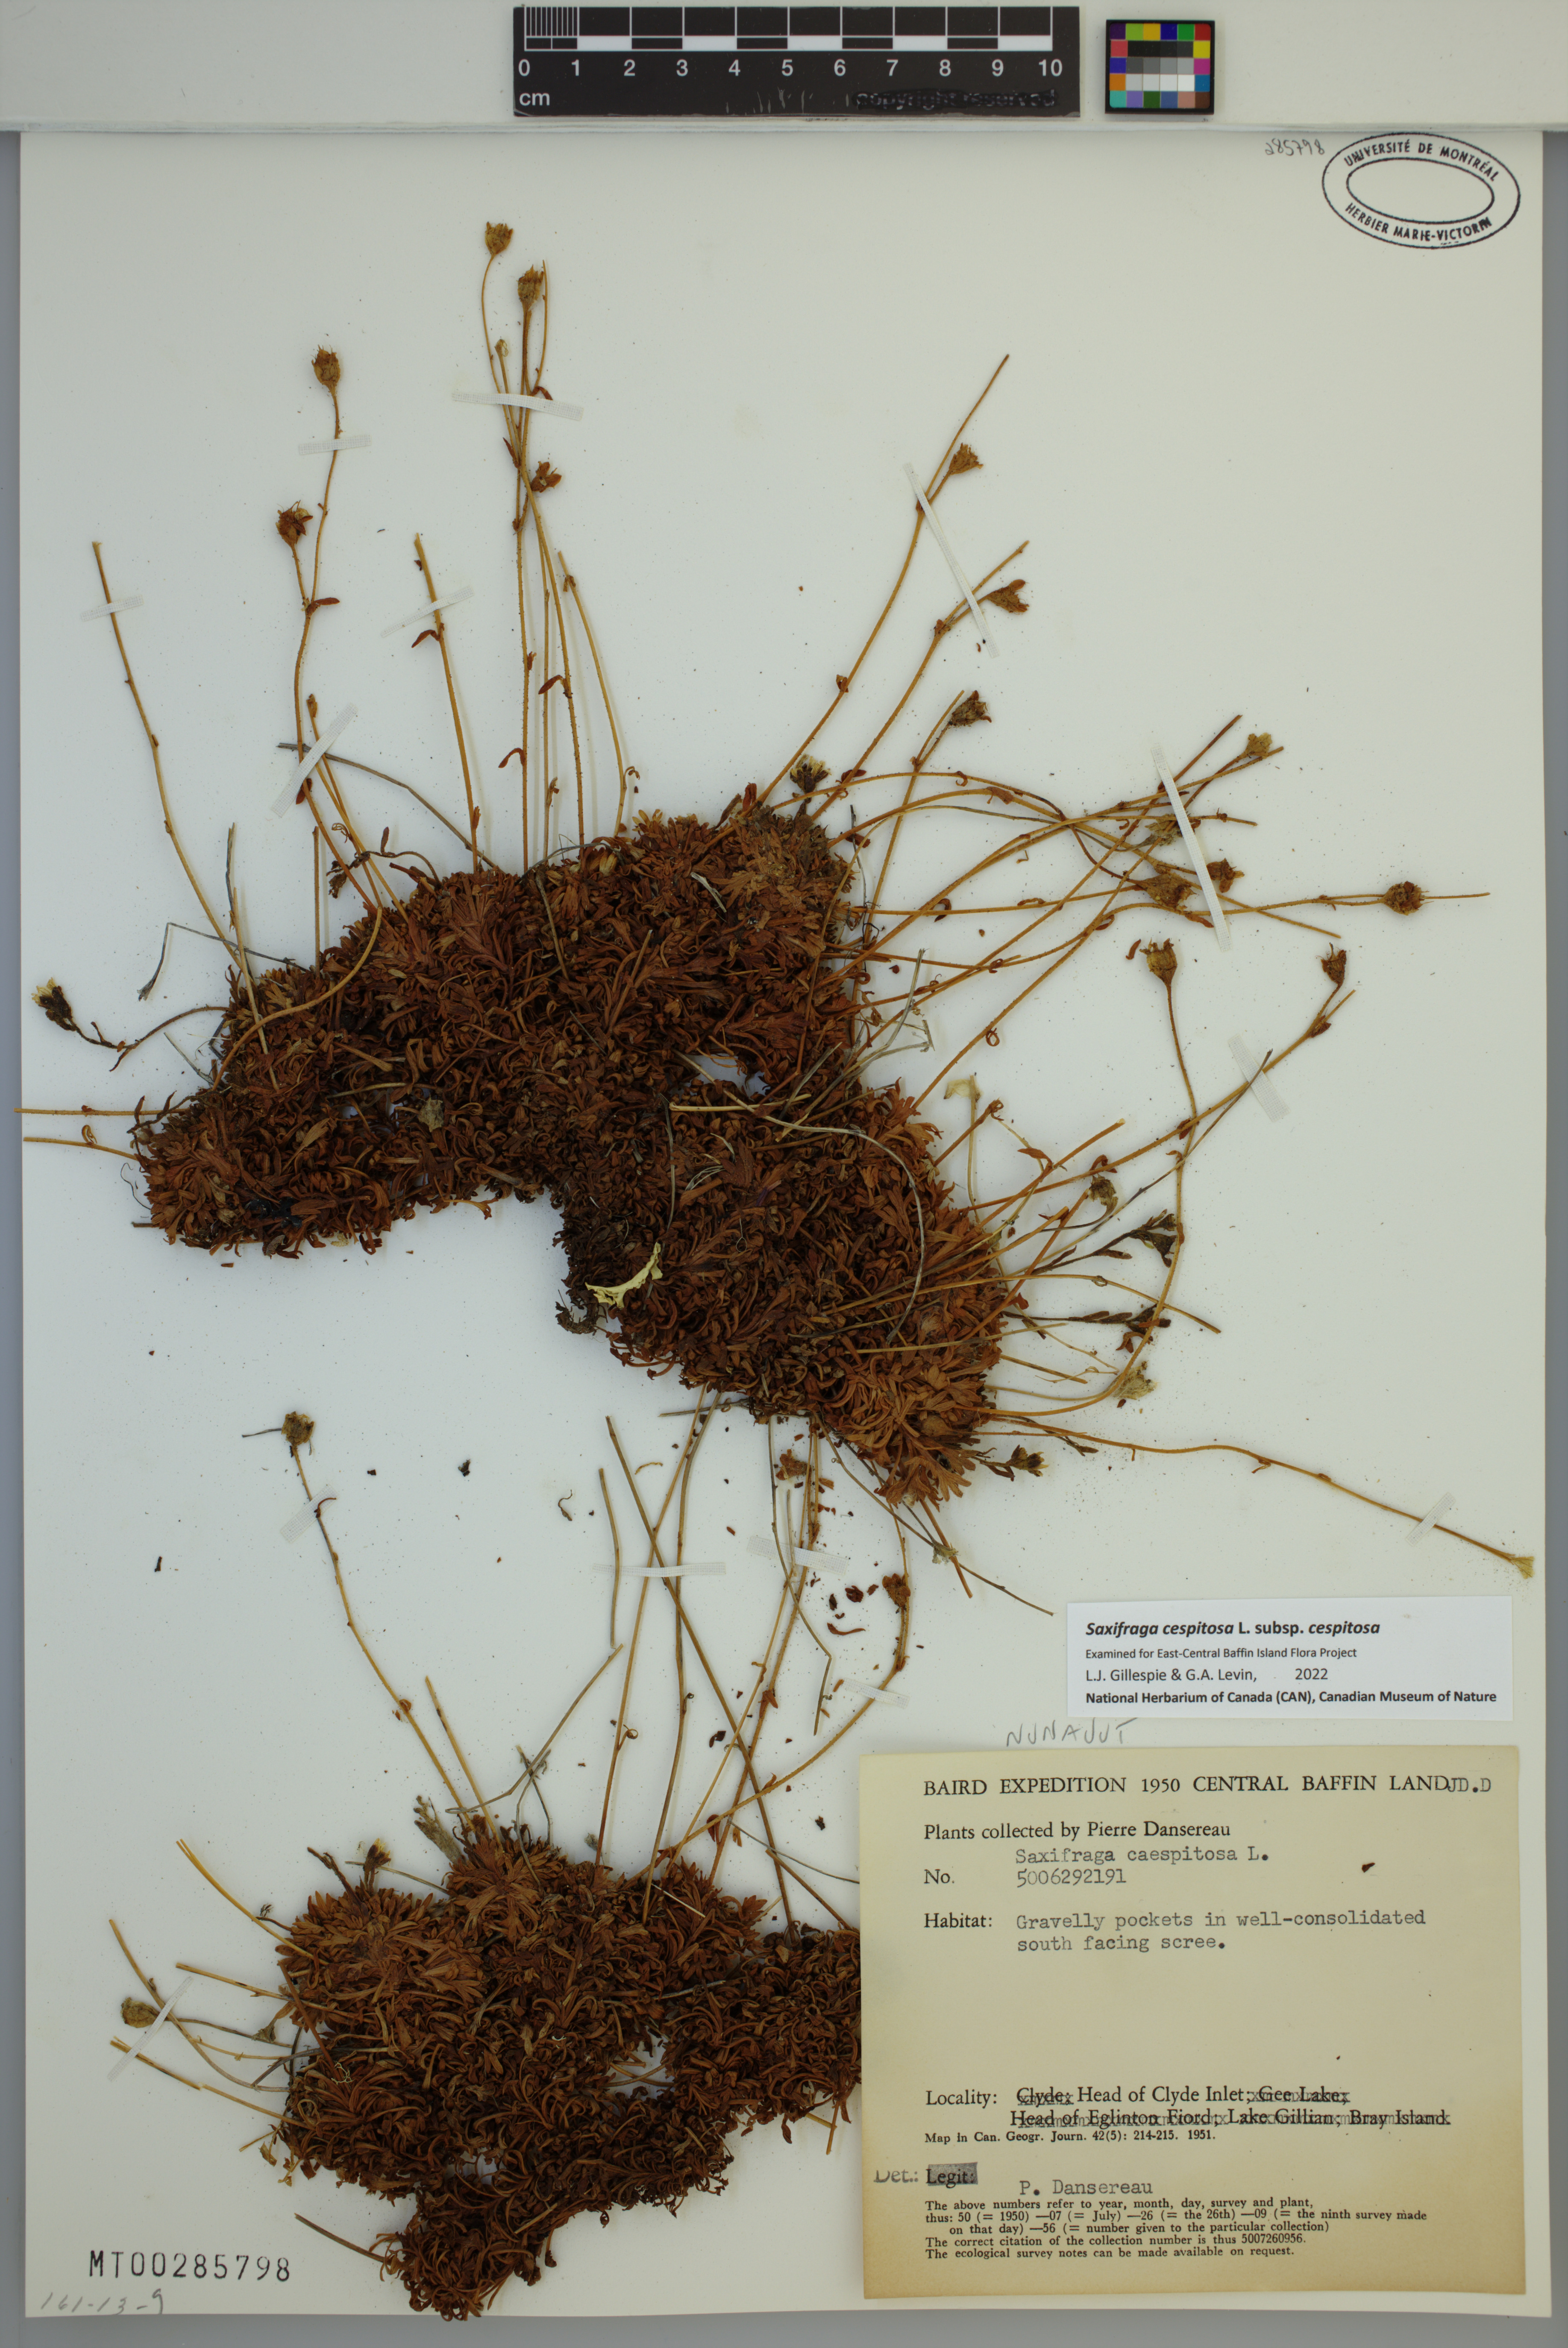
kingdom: Plantae
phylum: Tracheophyta
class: Magnoliopsida
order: Saxifragales
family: Saxifragaceae
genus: Saxifraga
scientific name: Saxifraga cespitosa
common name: Tufted saxifrage
